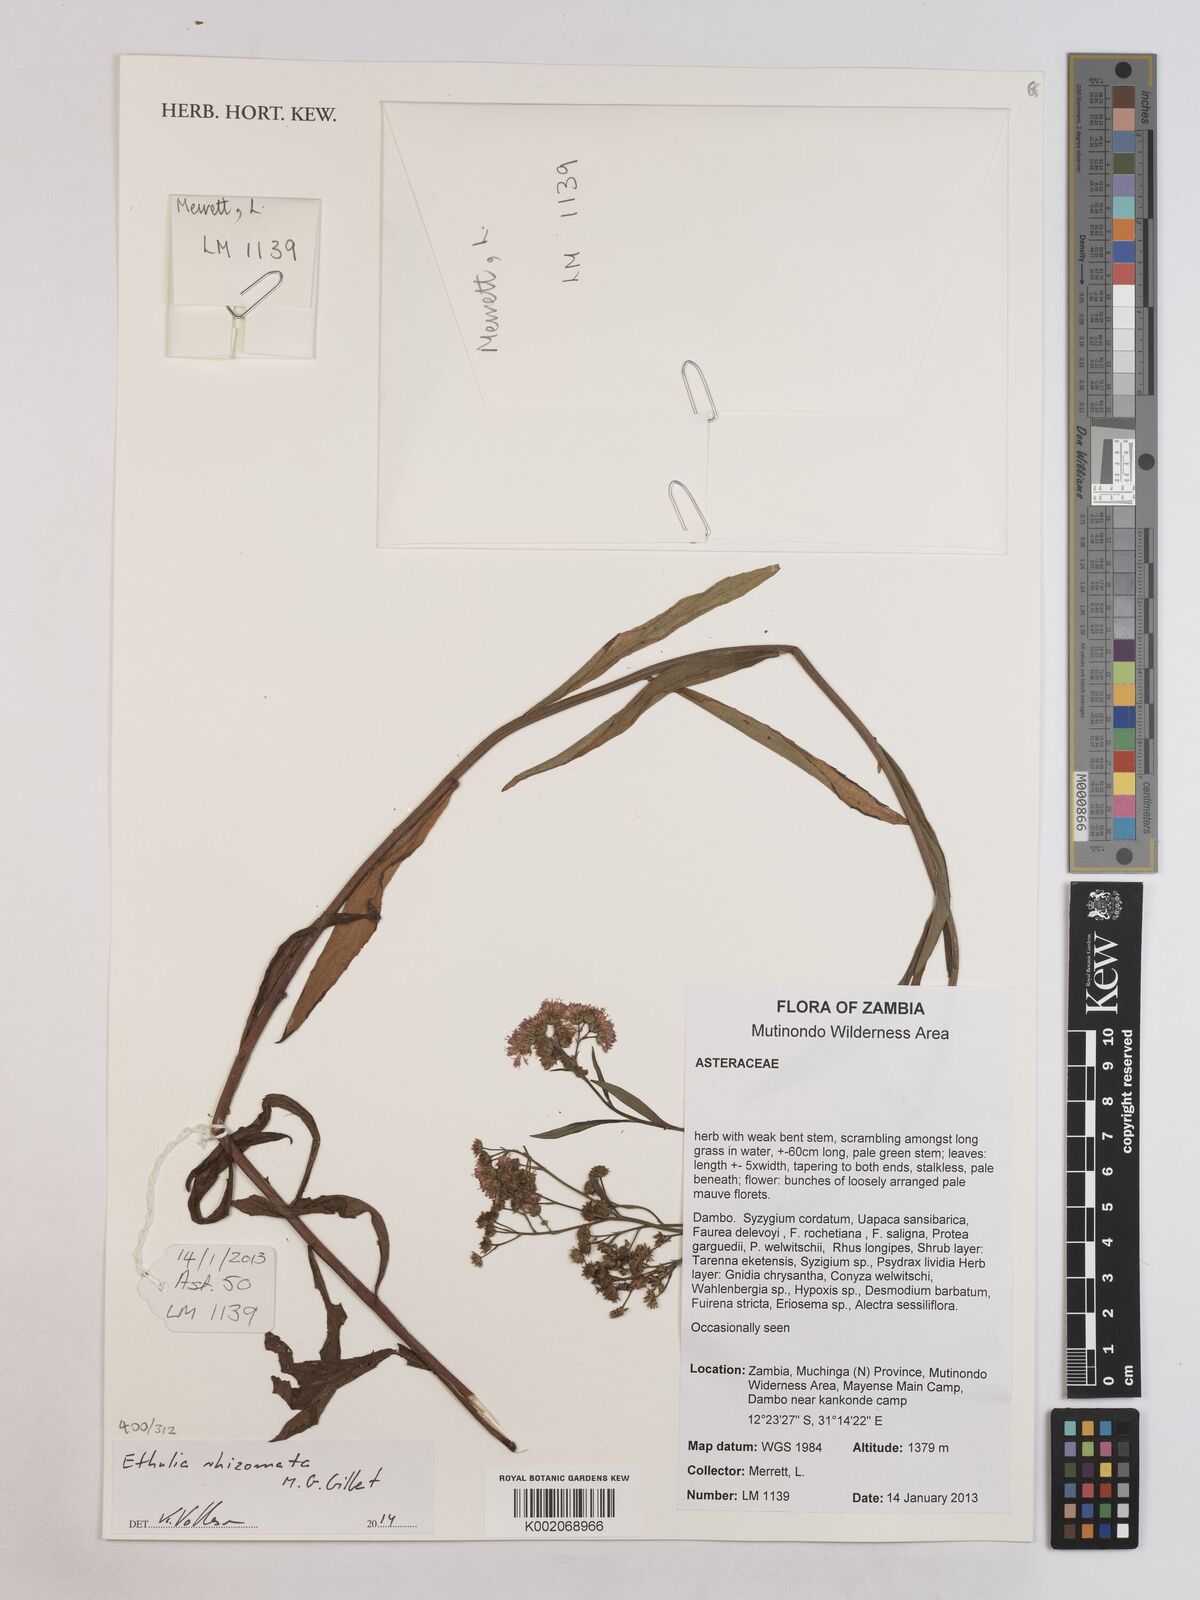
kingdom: Plantae
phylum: Tracheophyta
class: Magnoliopsida
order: Asterales
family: Asteraceae
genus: Ethulia
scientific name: Ethulia rhizomata
